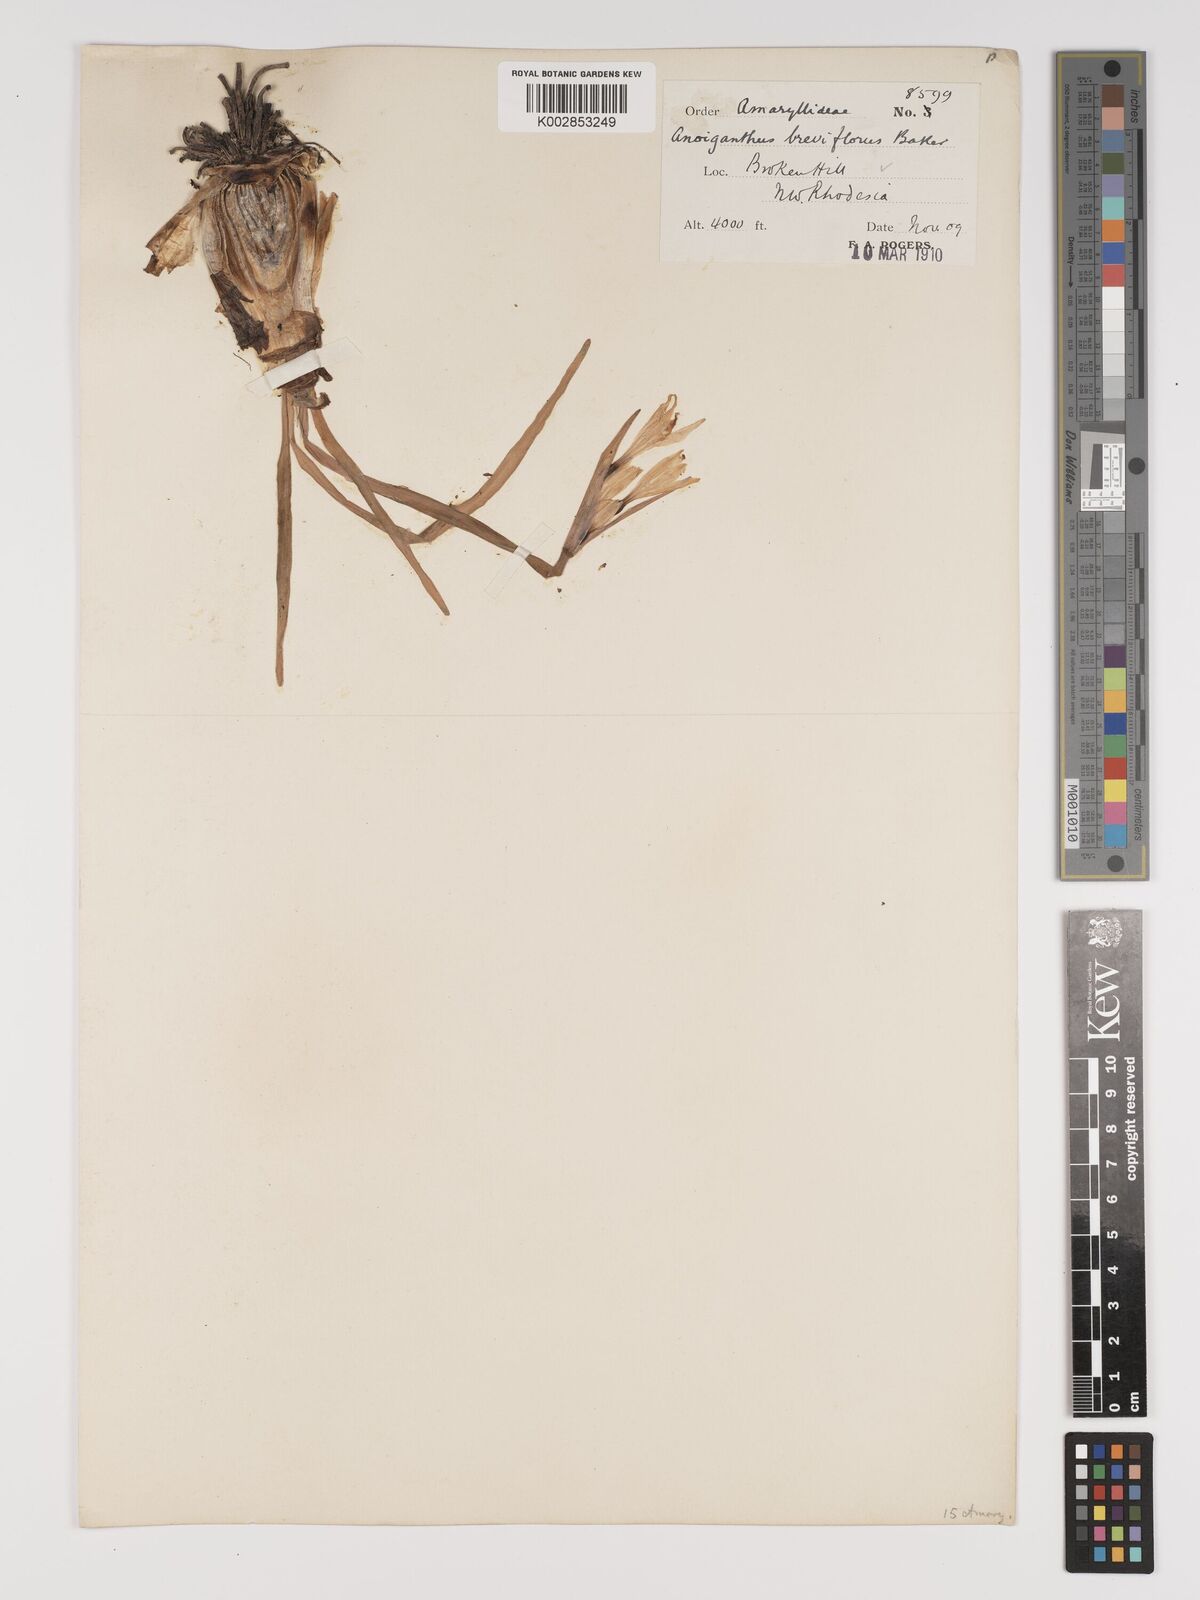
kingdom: Plantae
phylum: Tracheophyta
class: Liliopsida
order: Asparagales
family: Amaryllidaceae
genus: Cyrtanthus
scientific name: Cyrtanthus breviflorus
